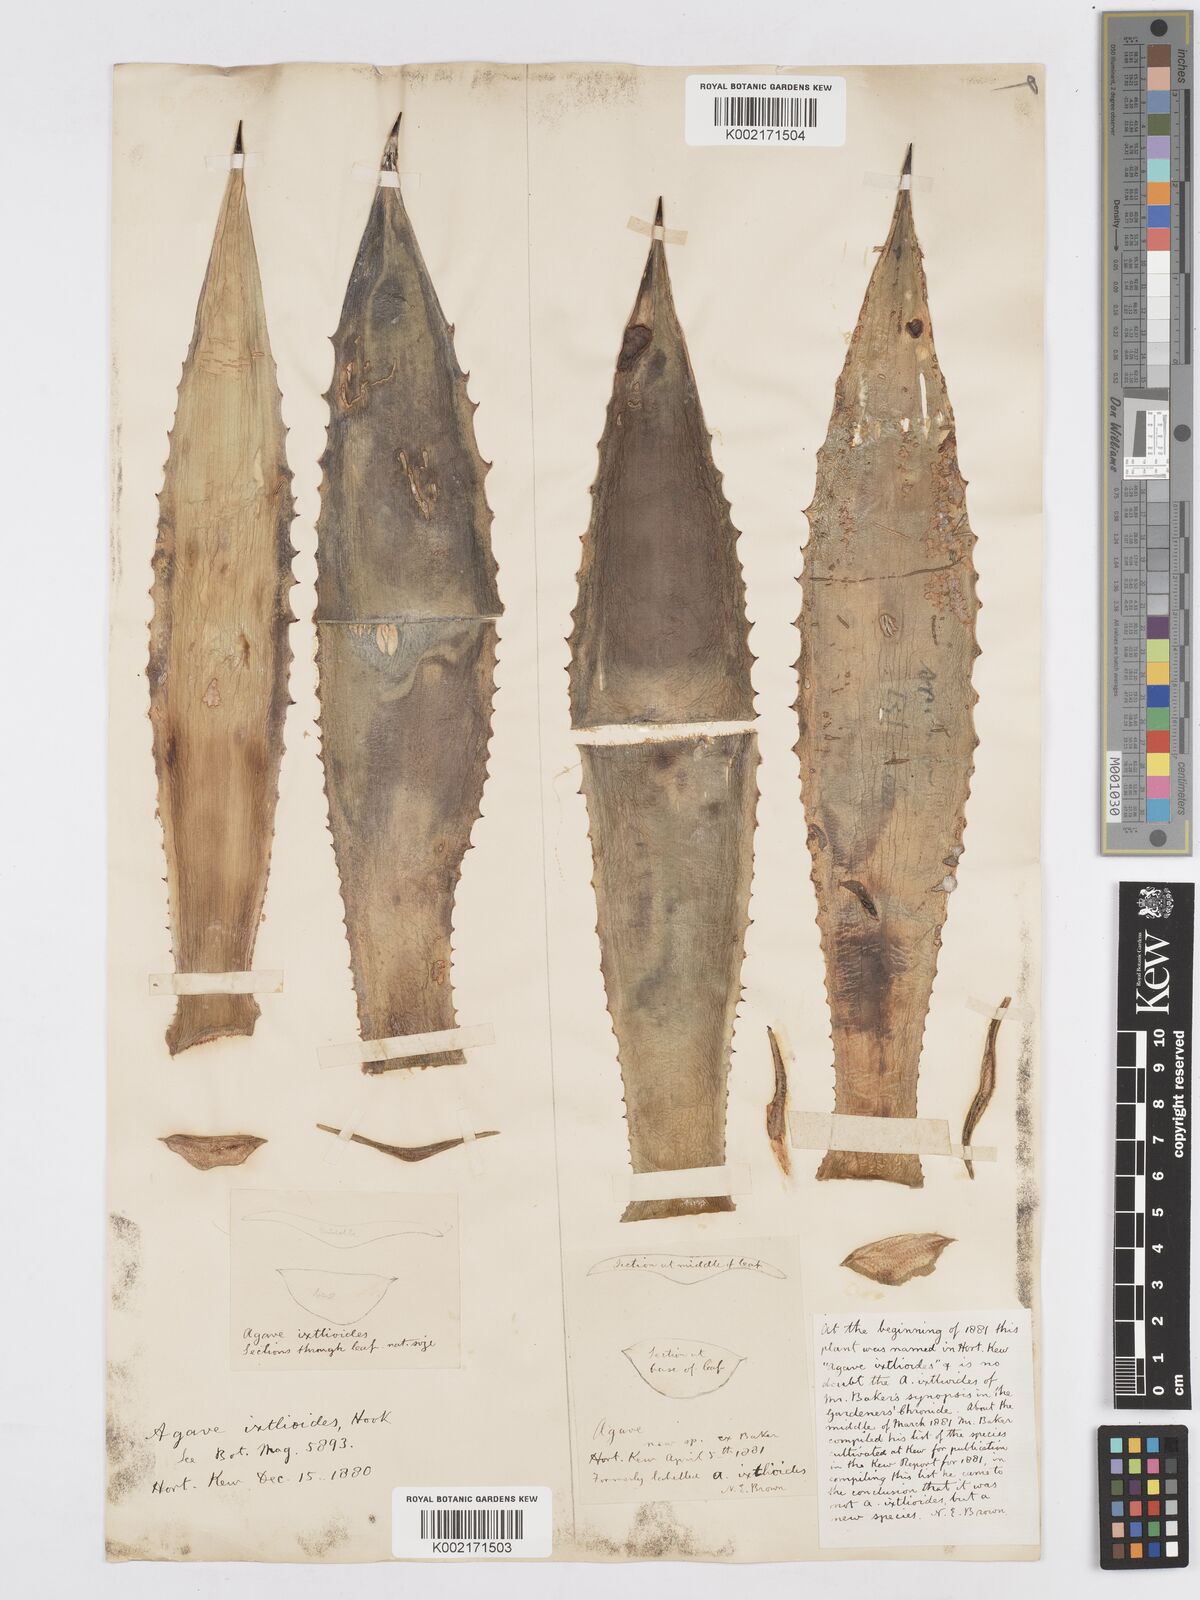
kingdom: Plantae
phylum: Tracheophyta
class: Liliopsida
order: Asparagales
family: Asparagaceae
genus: Agave
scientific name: Agave angustifolia
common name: Mescal agave
